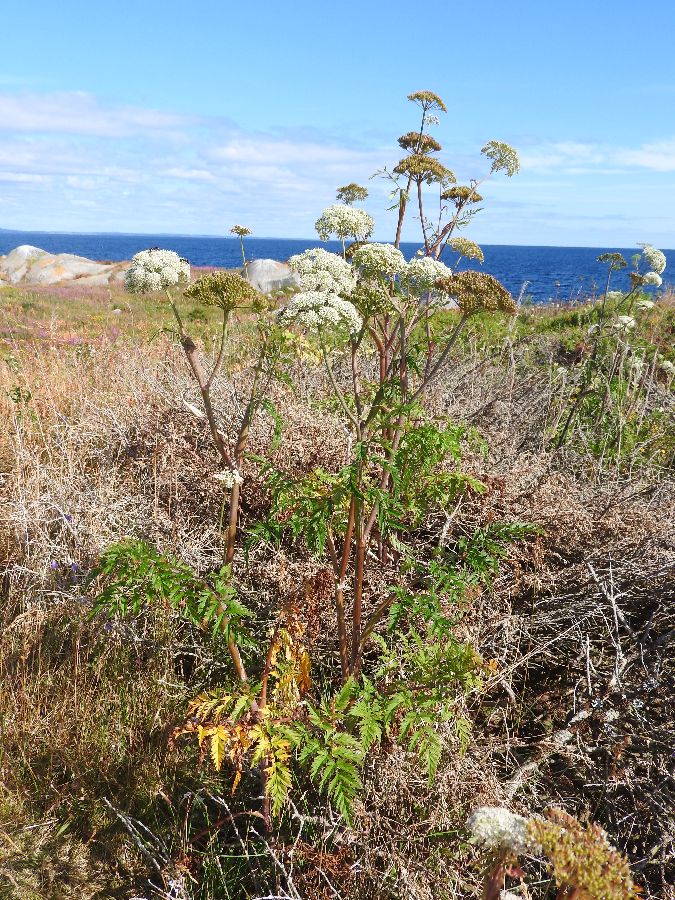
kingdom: Plantae
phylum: Tracheophyta
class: Magnoliopsida
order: Apiales
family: Apiaceae
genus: Conioselinum
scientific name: Conioselinum tataricum
